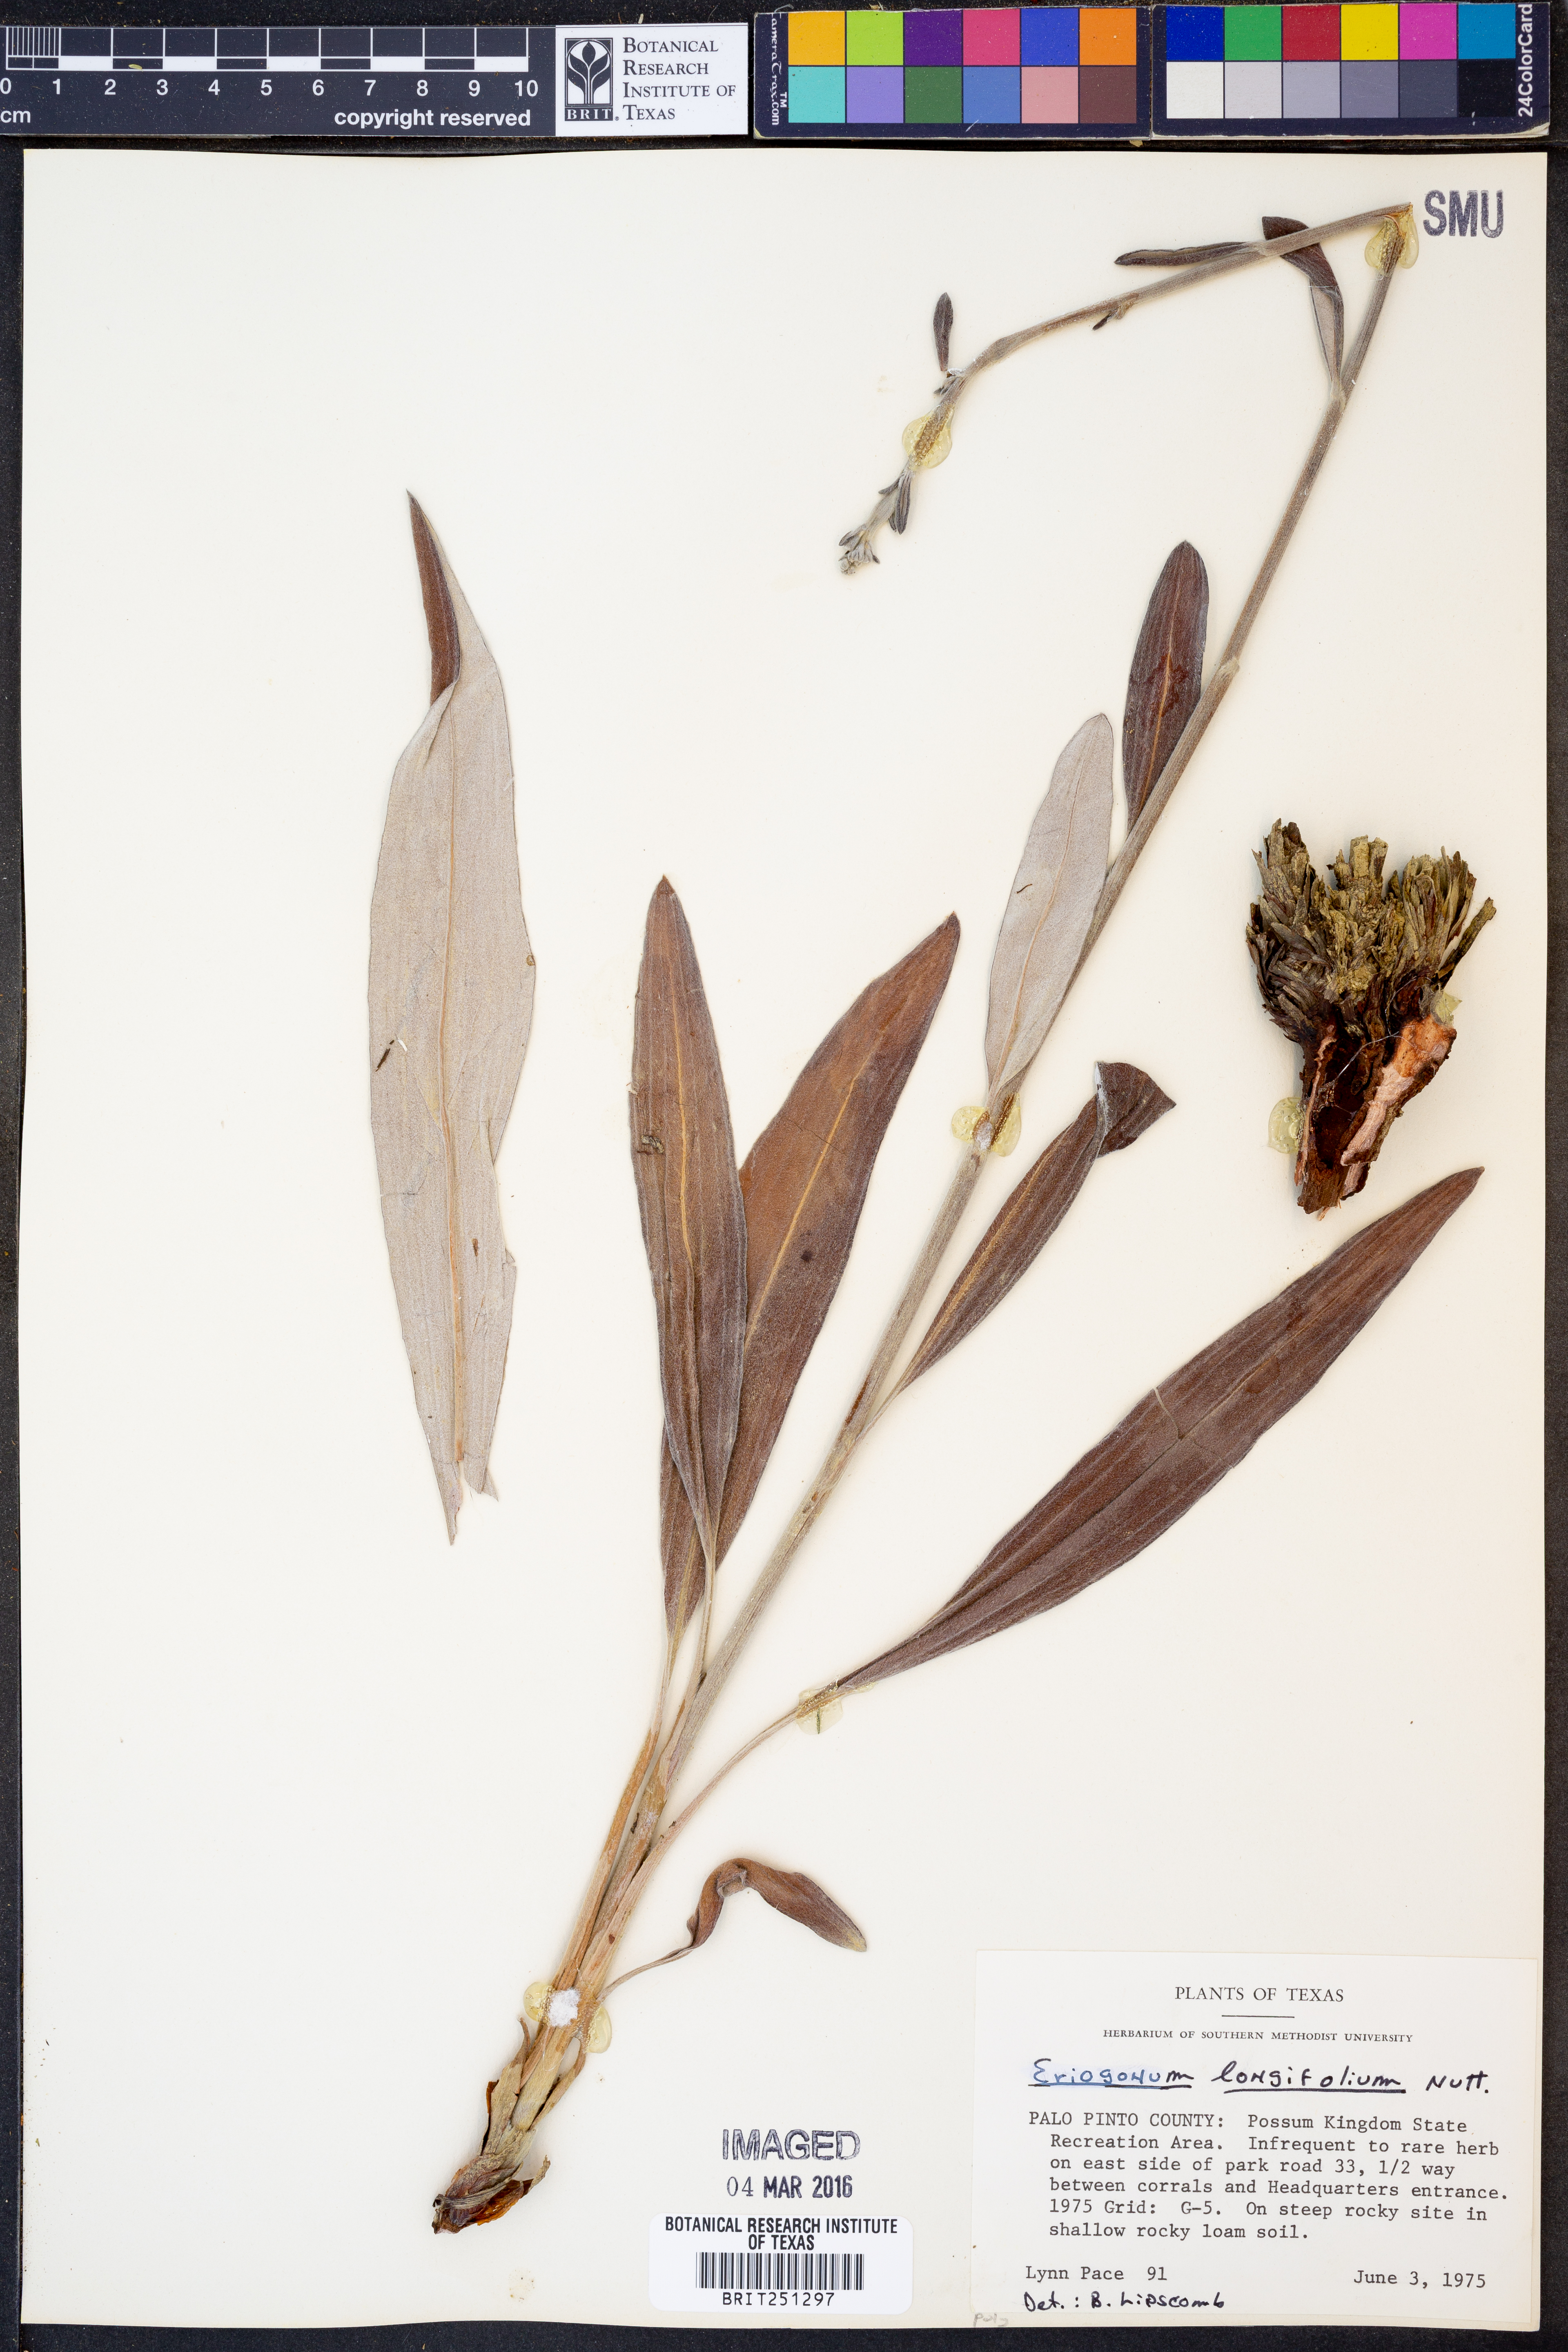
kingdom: Plantae
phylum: Tracheophyta
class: Magnoliopsida
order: Caryophyllales
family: Polygonaceae
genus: Eriogonum
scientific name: Eriogonum longifolium
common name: Longleaf wild buckwheat
